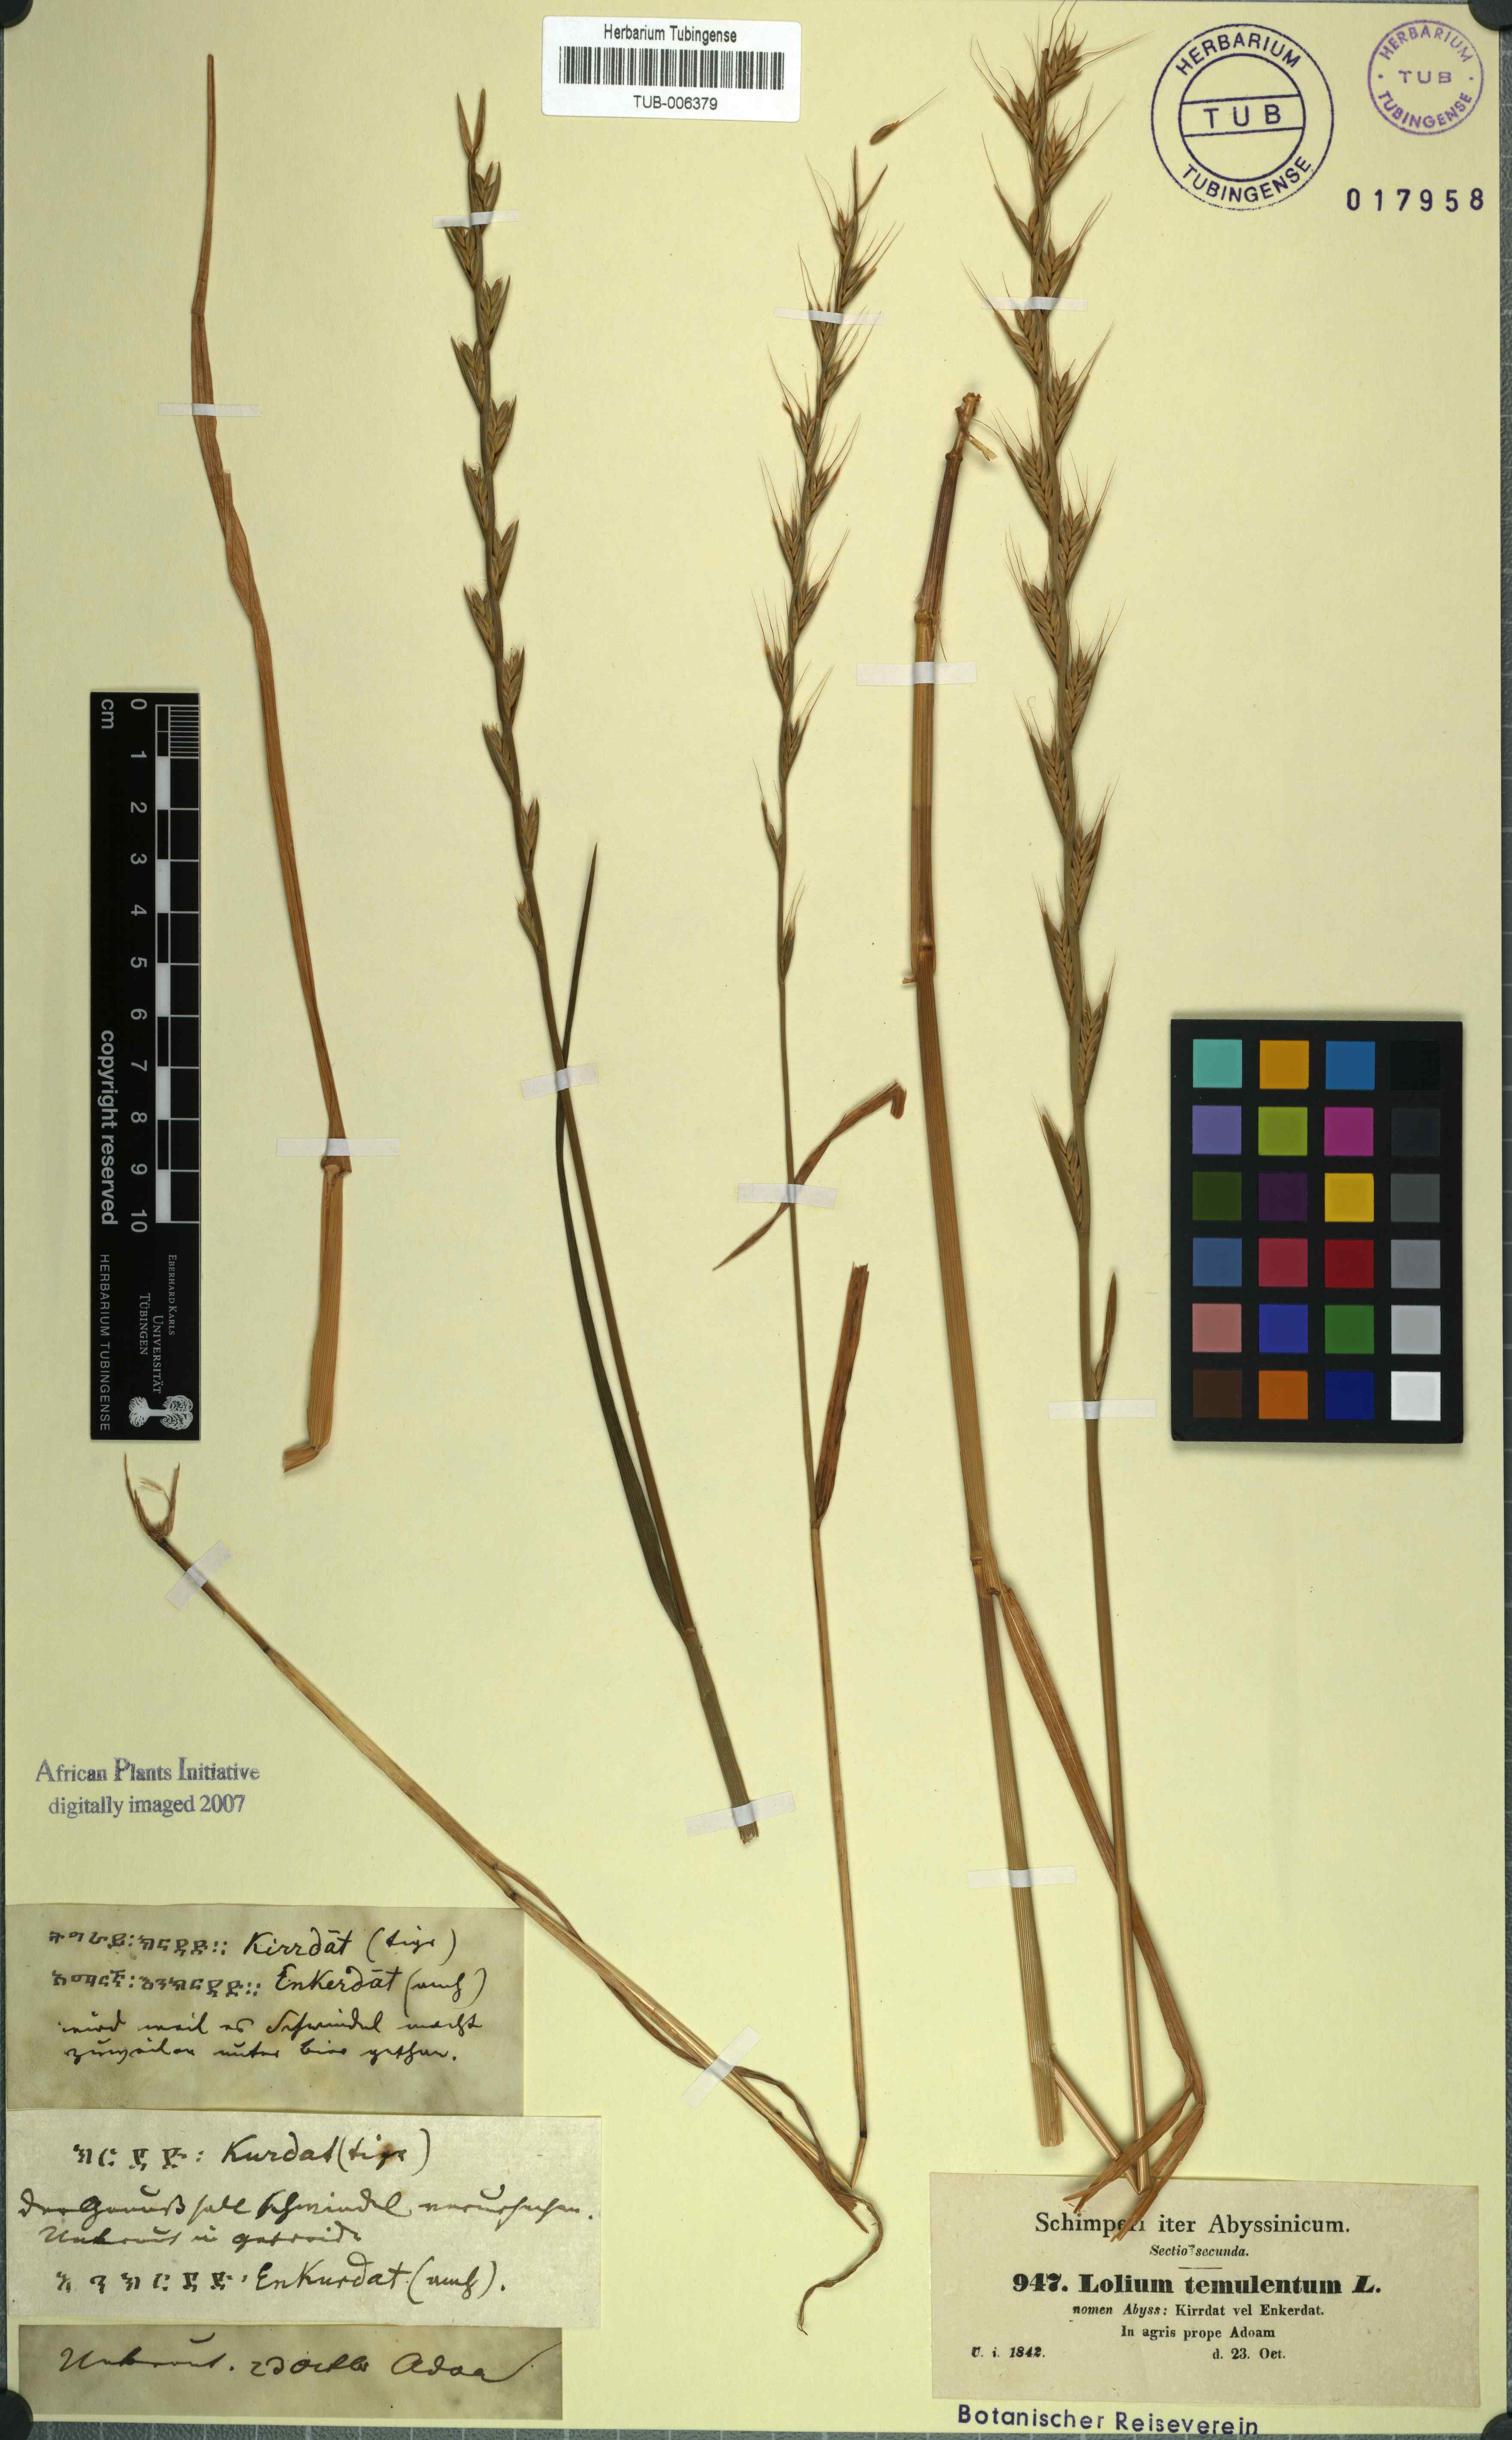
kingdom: Plantae
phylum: Tracheophyta
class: Liliopsida
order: Poales
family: Poaceae
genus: Lolium
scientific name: Lolium temulentum
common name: Darnel
